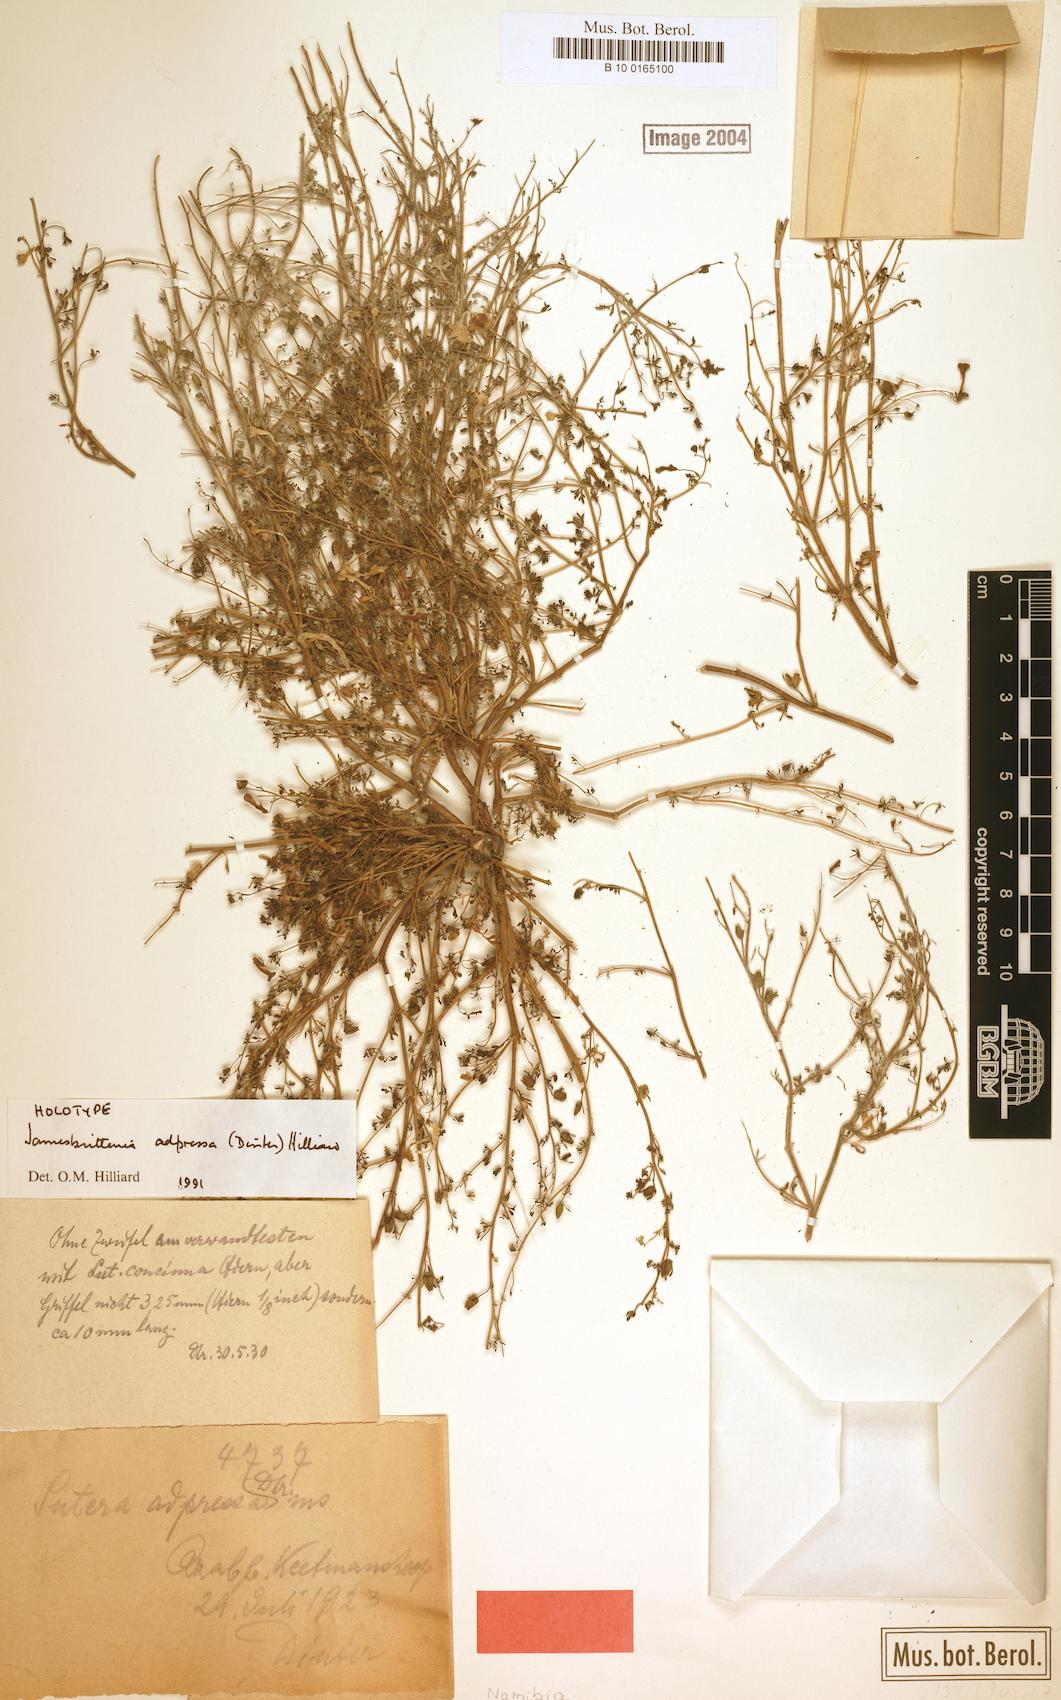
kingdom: Plantae
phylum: Tracheophyta
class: Magnoliopsida
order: Lamiales
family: Scrophulariaceae
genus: Jamesbrittenia
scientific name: Jamesbrittenia adpressa
